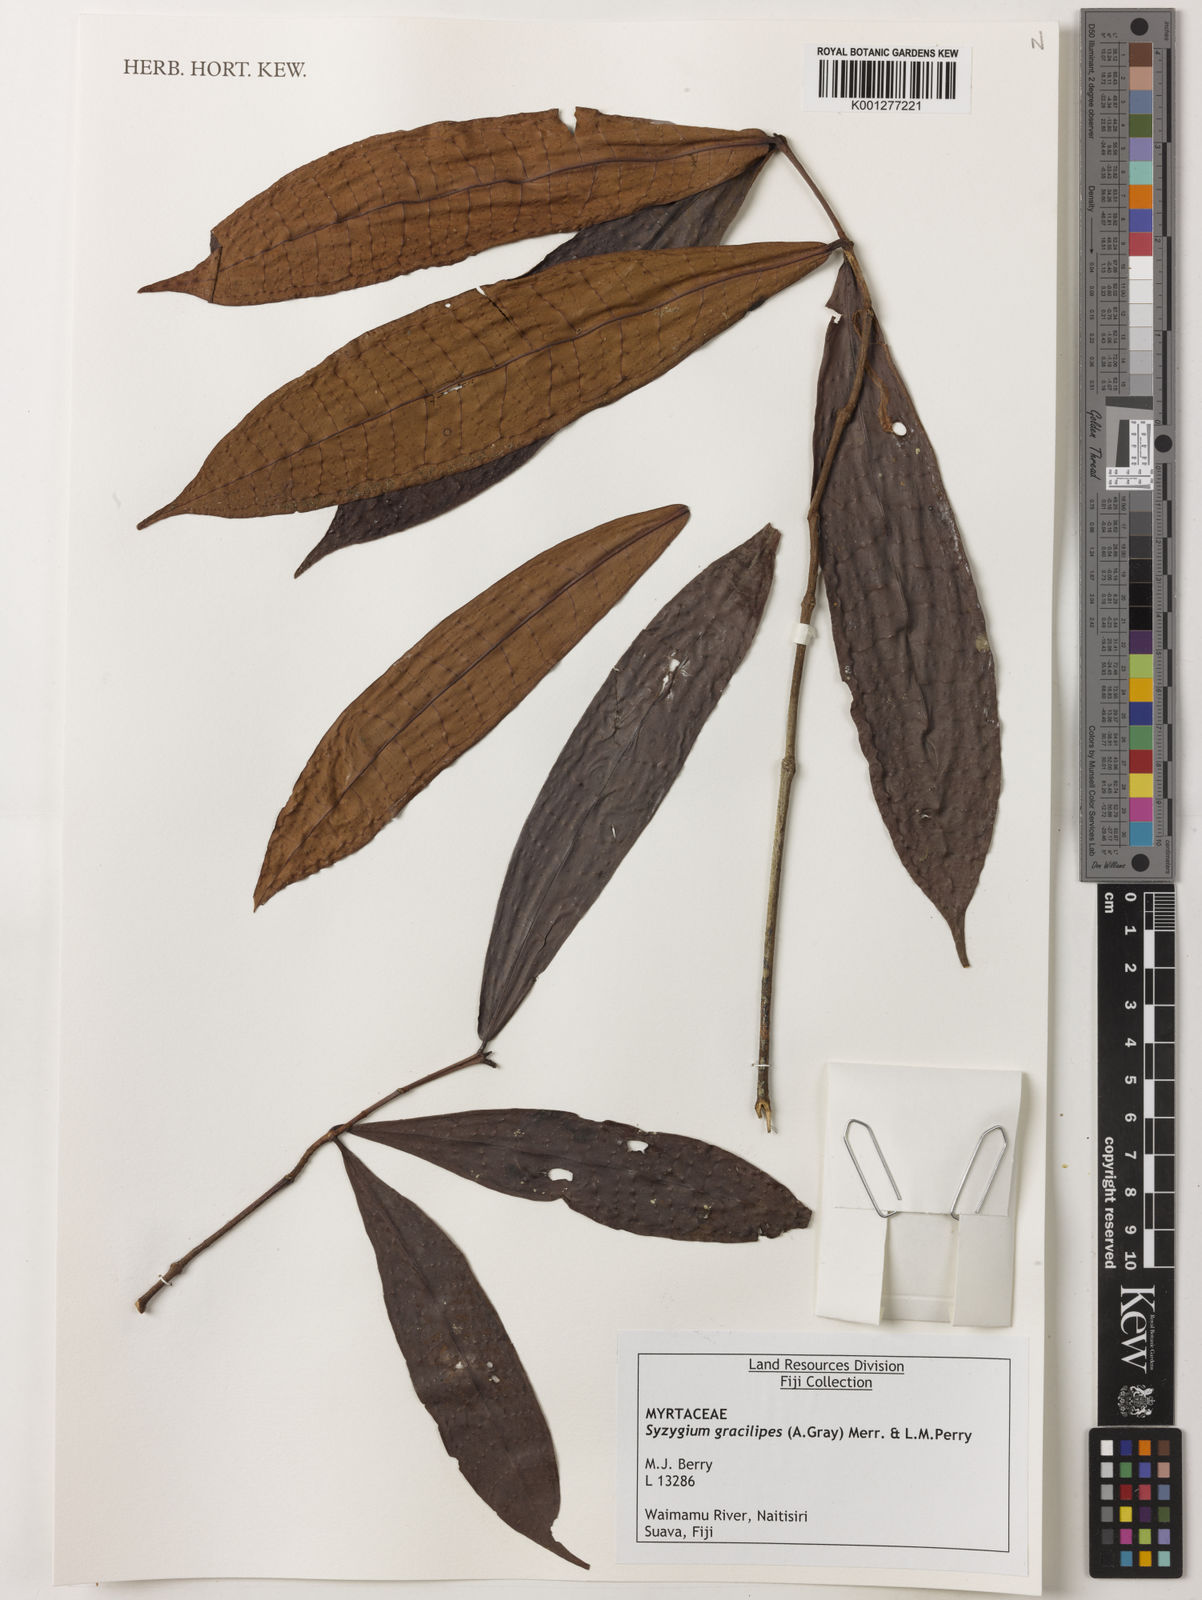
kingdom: Plantae
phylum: Tracheophyta
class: Magnoliopsida
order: Myrtales
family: Myrtaceae
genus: Syzygium
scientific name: Syzygium gracilipes
